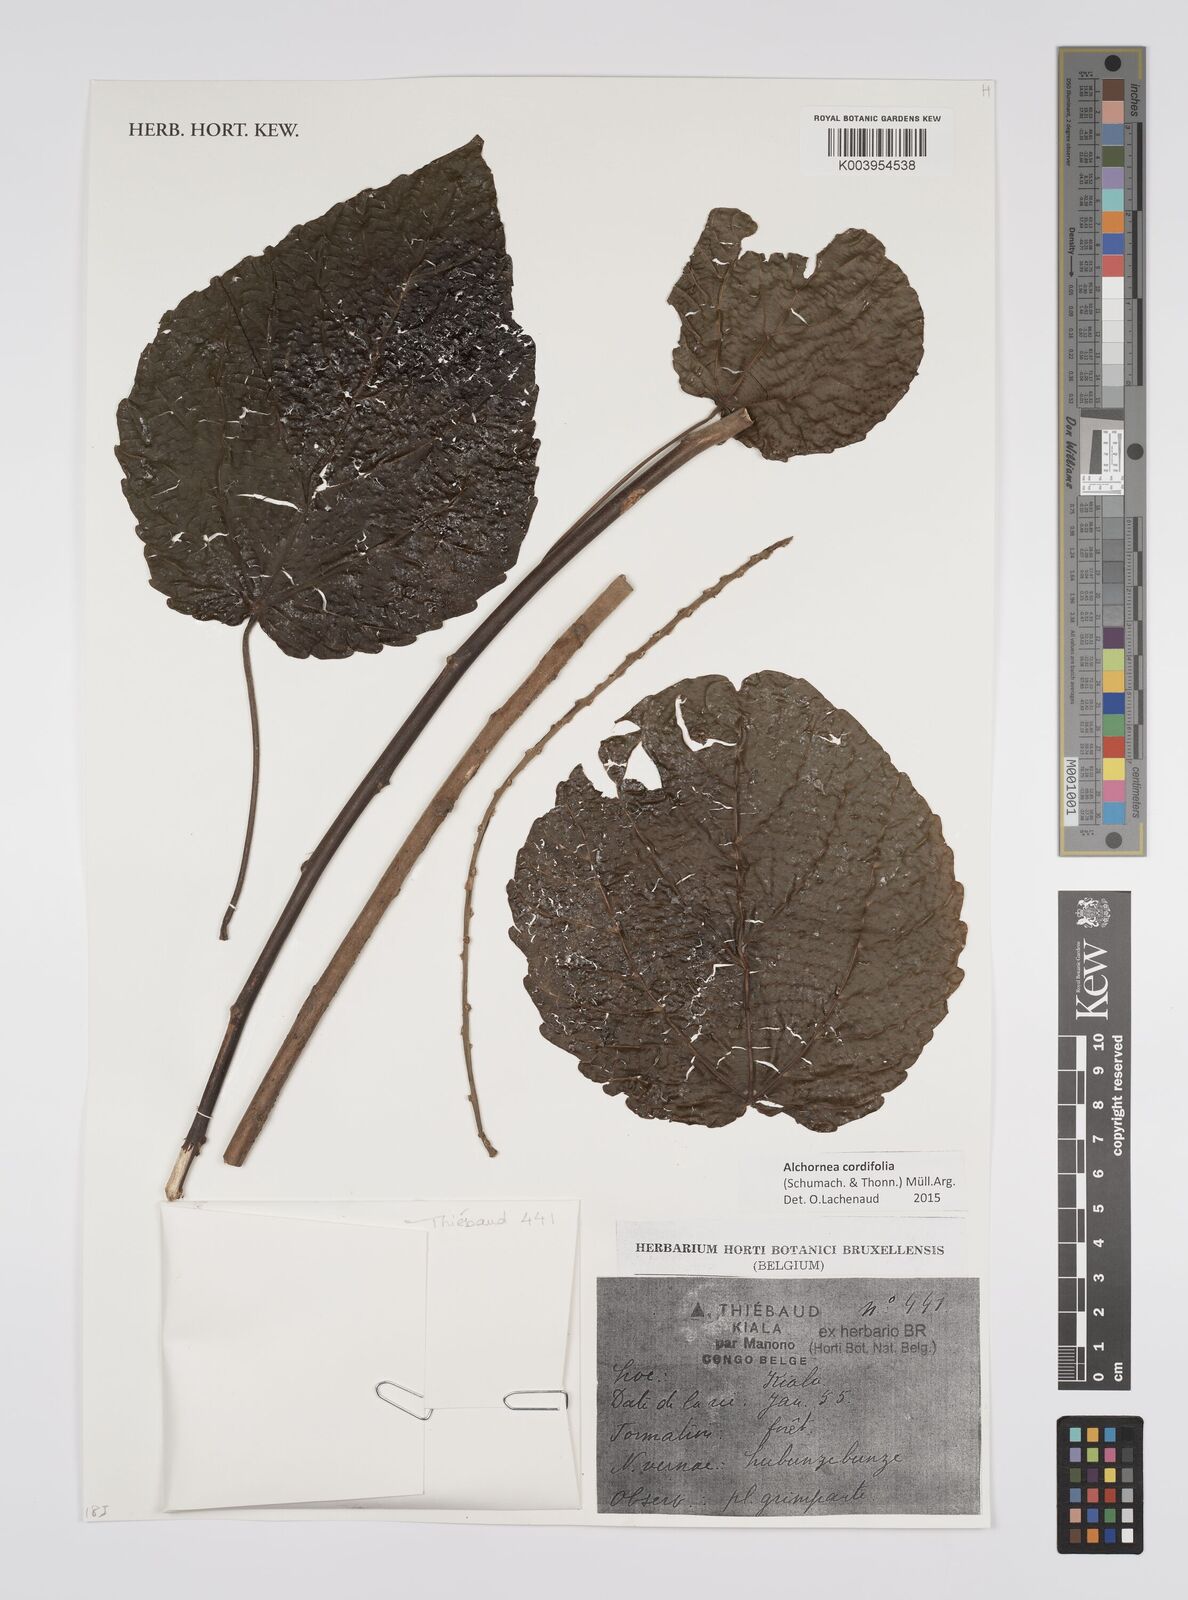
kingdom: Plantae
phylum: Tracheophyta
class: Magnoliopsida
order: Malpighiales
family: Euphorbiaceae
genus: Alchornea
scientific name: Alchornea cordifolia
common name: Christmasbush
